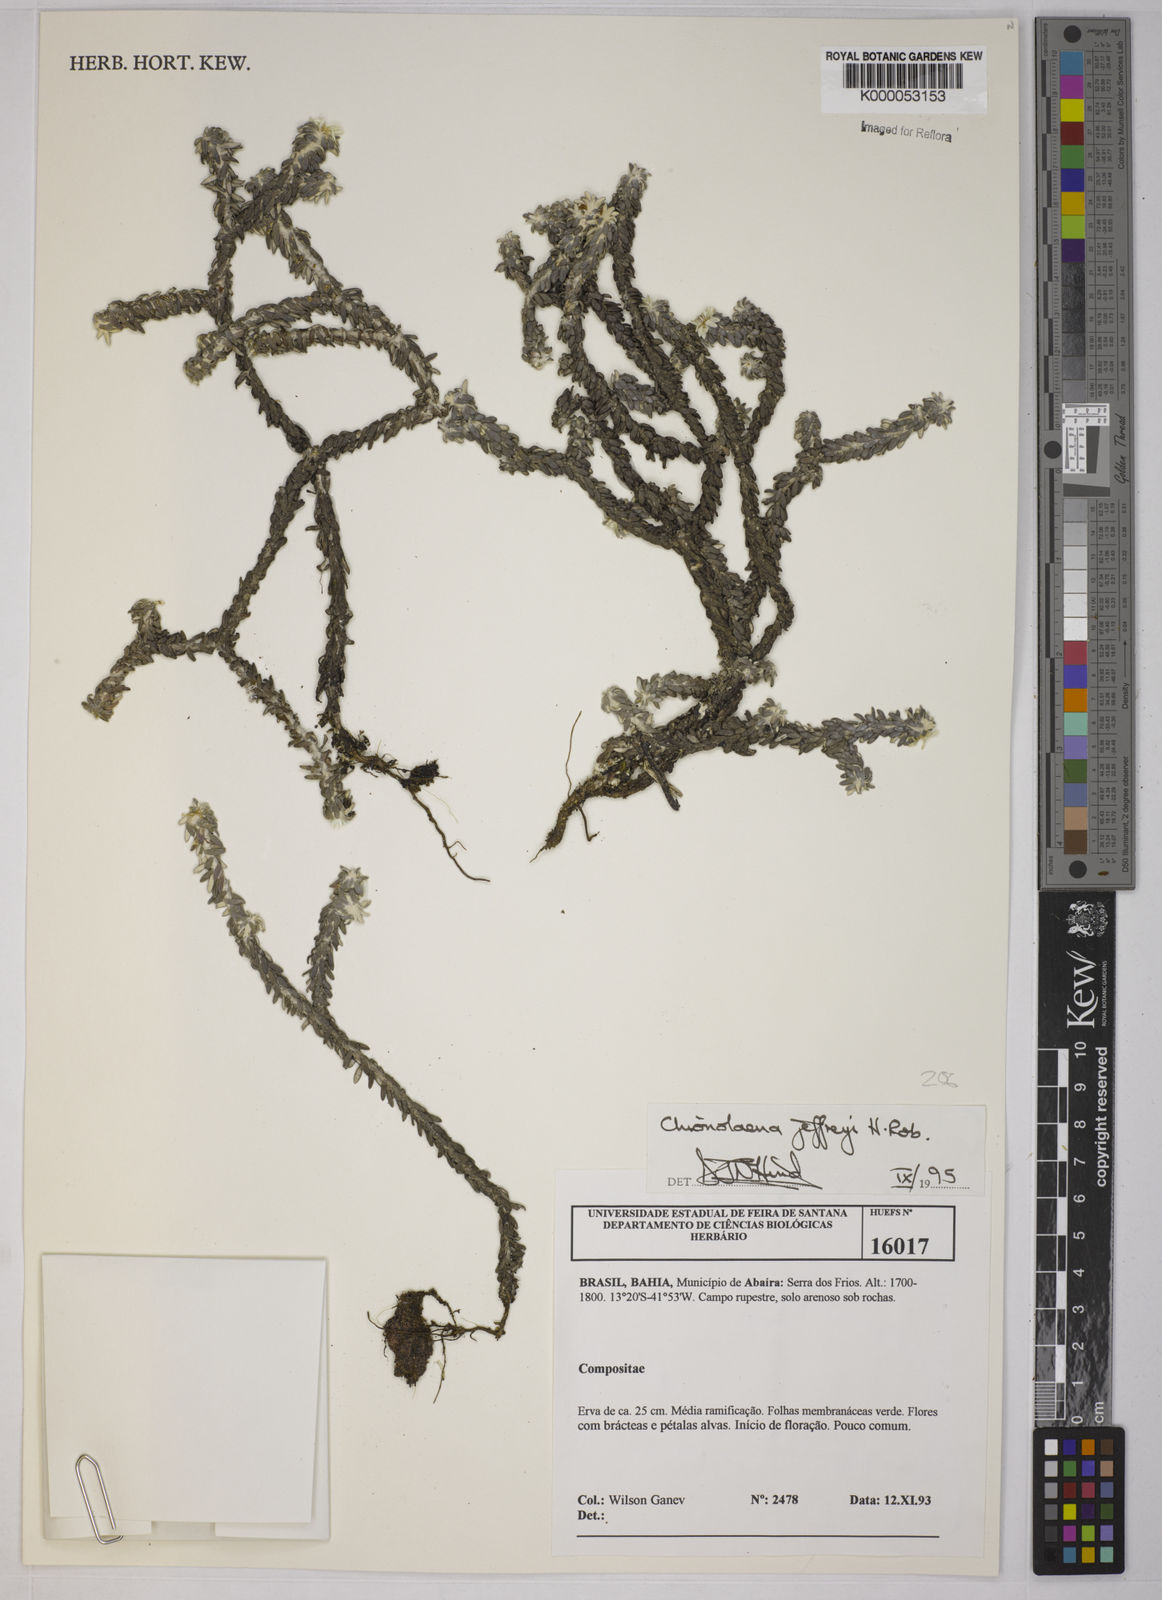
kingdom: Plantae
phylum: Tracheophyta
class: Magnoliopsida
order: Asterales
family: Asteraceae
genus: Chionolaena
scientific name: Chionolaena jeffreyi
